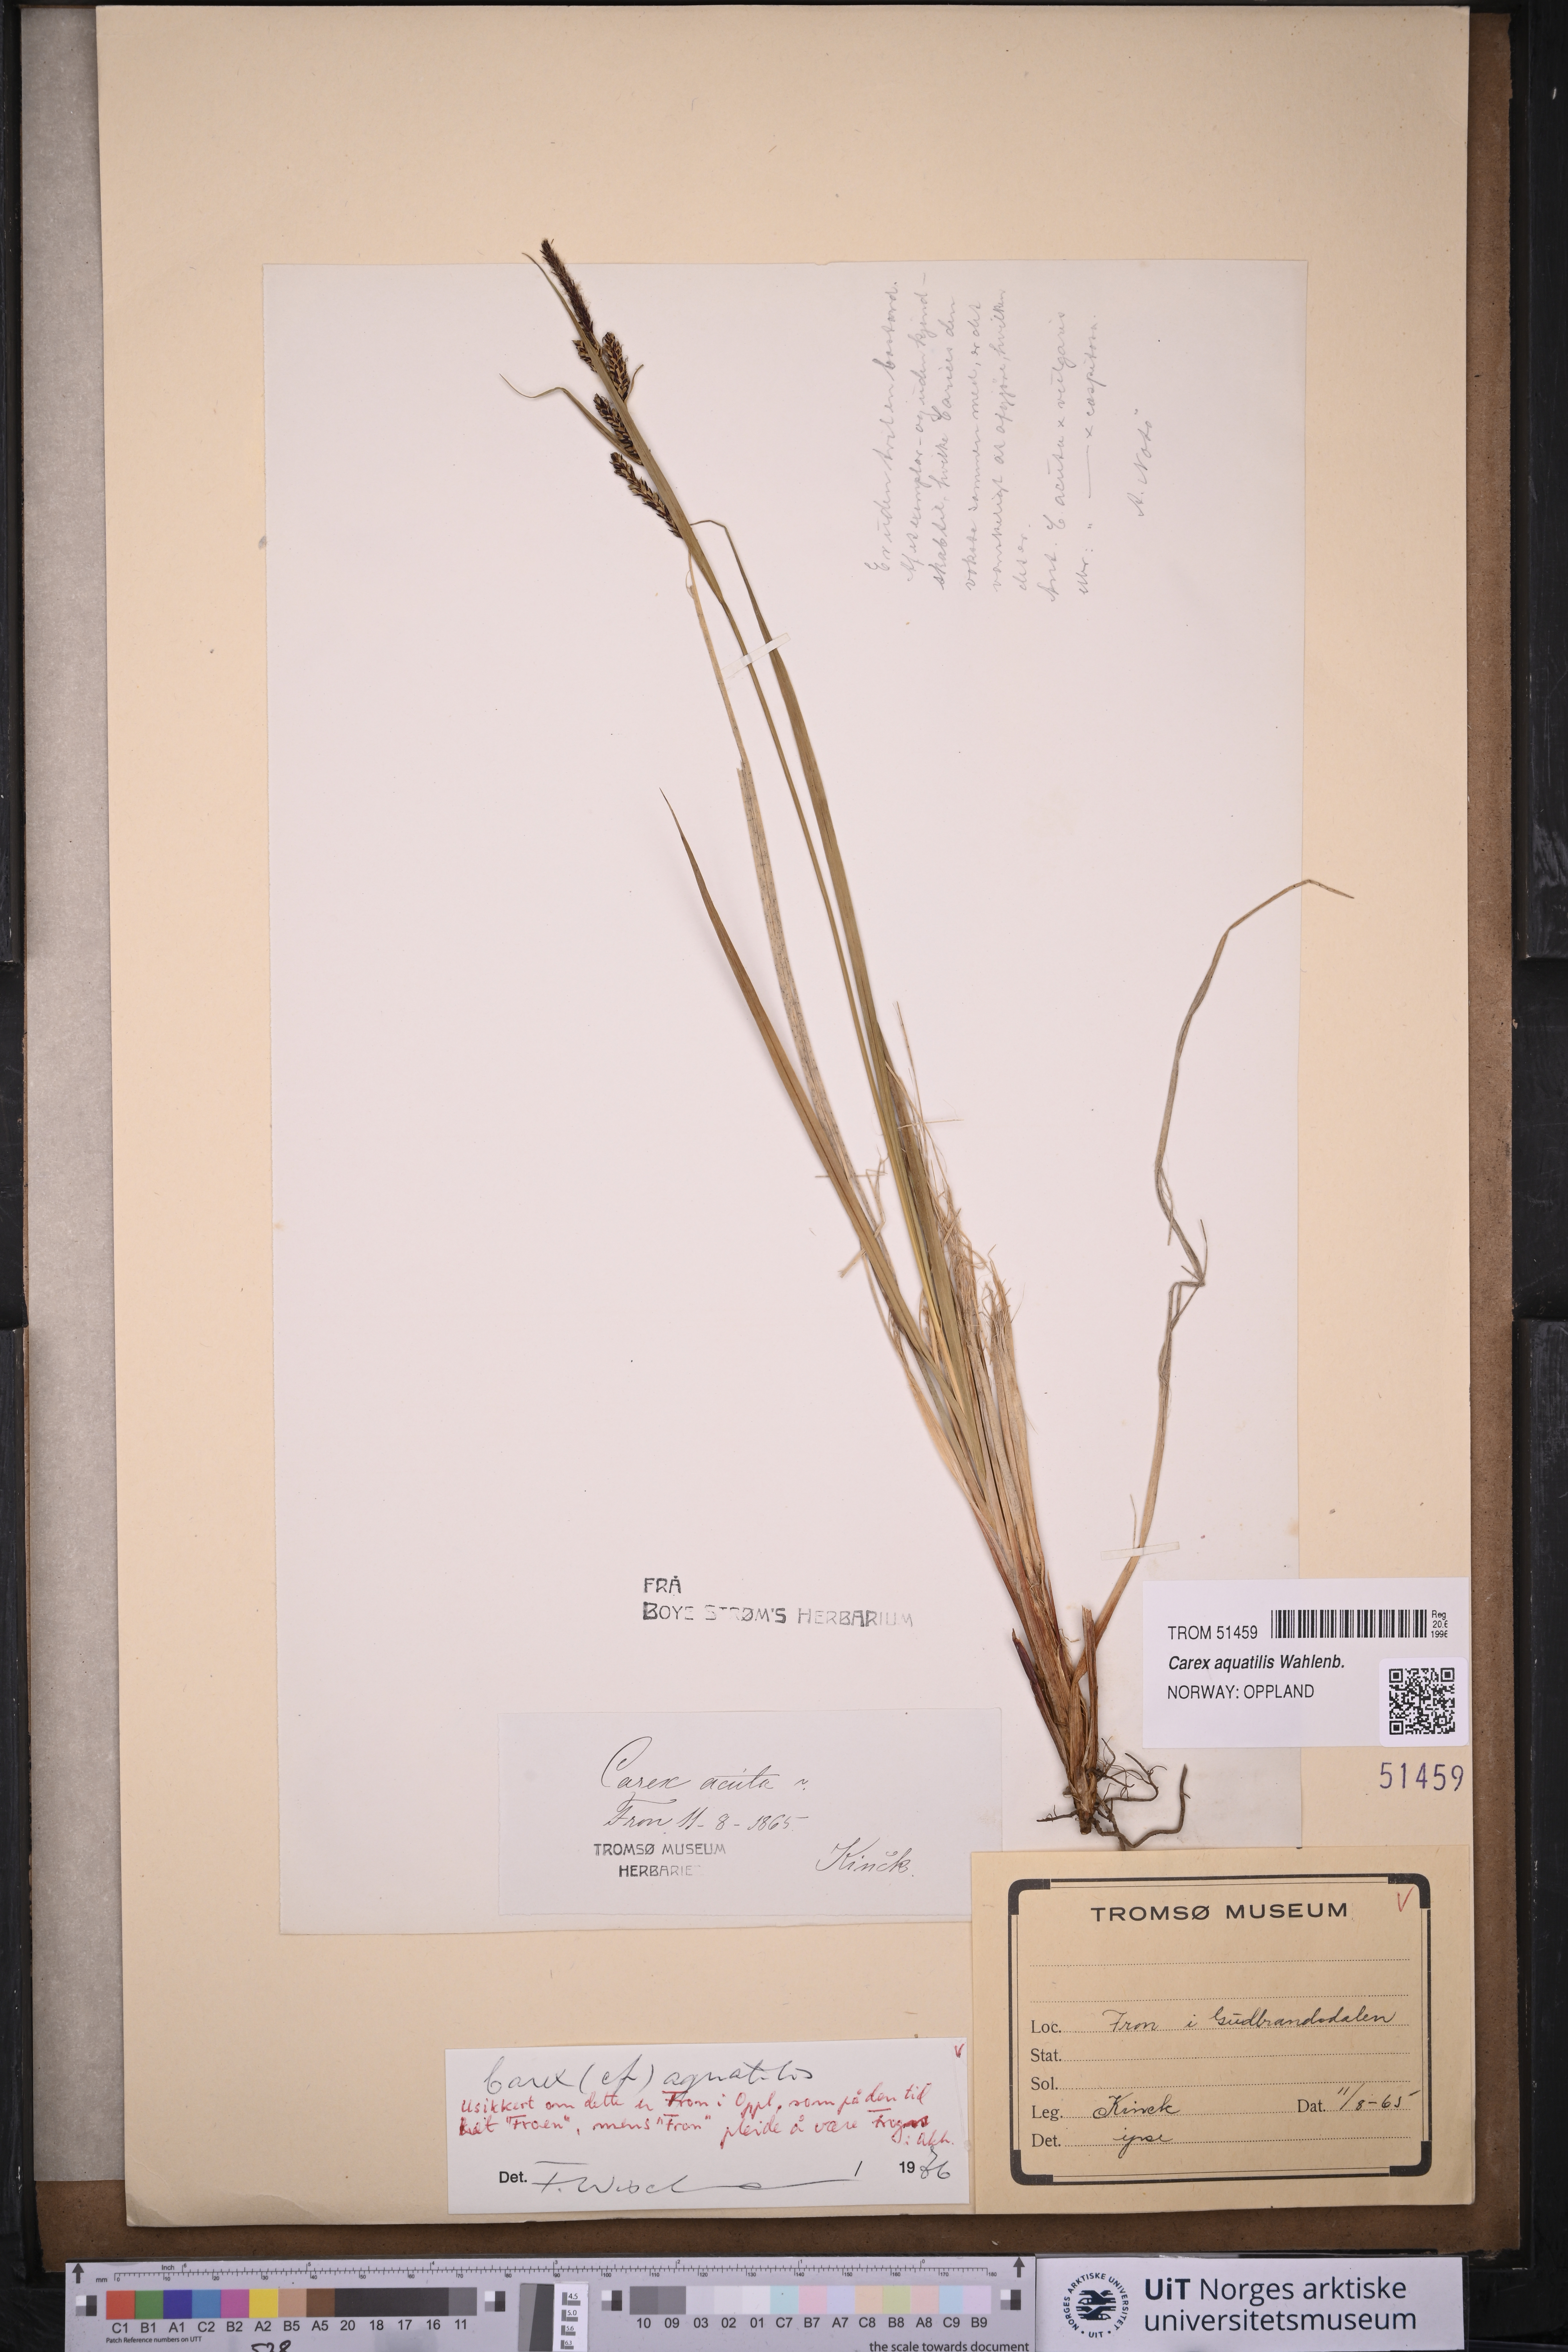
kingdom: Plantae
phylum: Tracheophyta
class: Liliopsida
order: Poales
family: Cyperaceae
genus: Carex
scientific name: Carex aquatilis
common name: Water sedge
